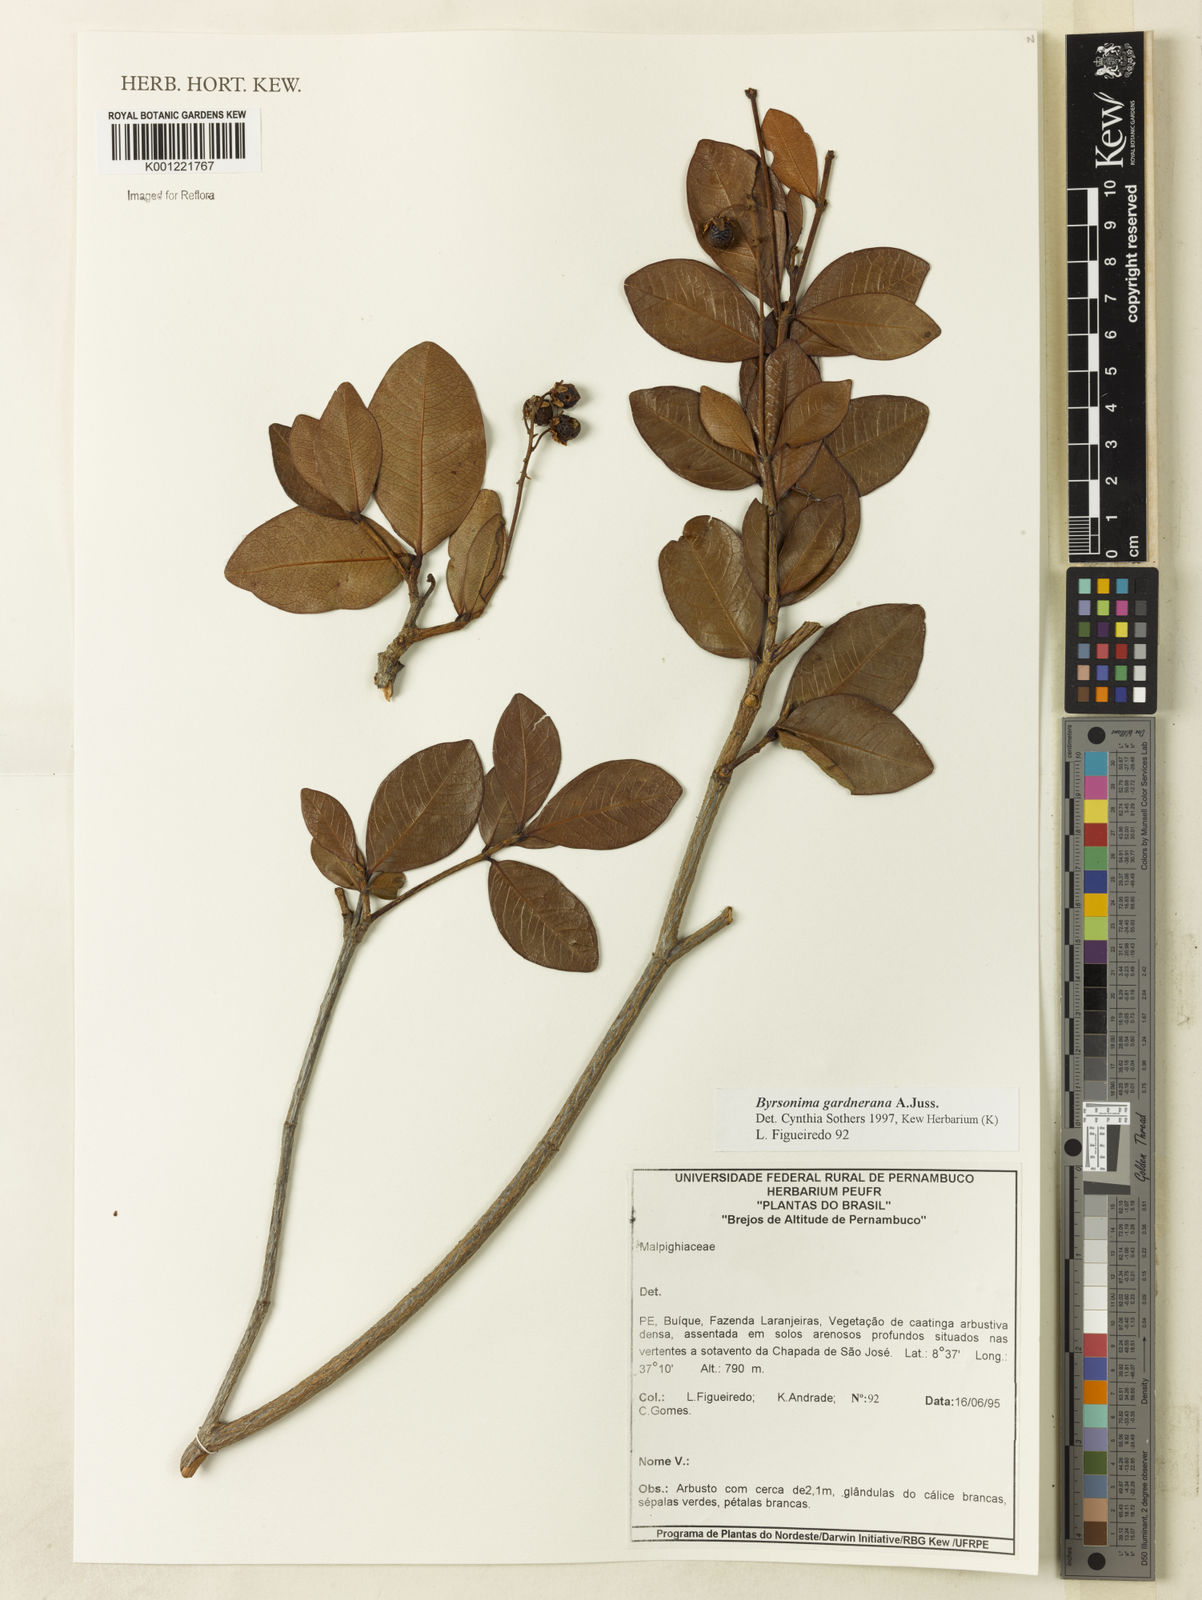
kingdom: Plantae
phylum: Tracheophyta
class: Magnoliopsida
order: Malpighiales
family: Malpighiaceae
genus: Byrsonima
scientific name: Byrsonima gardneriana
